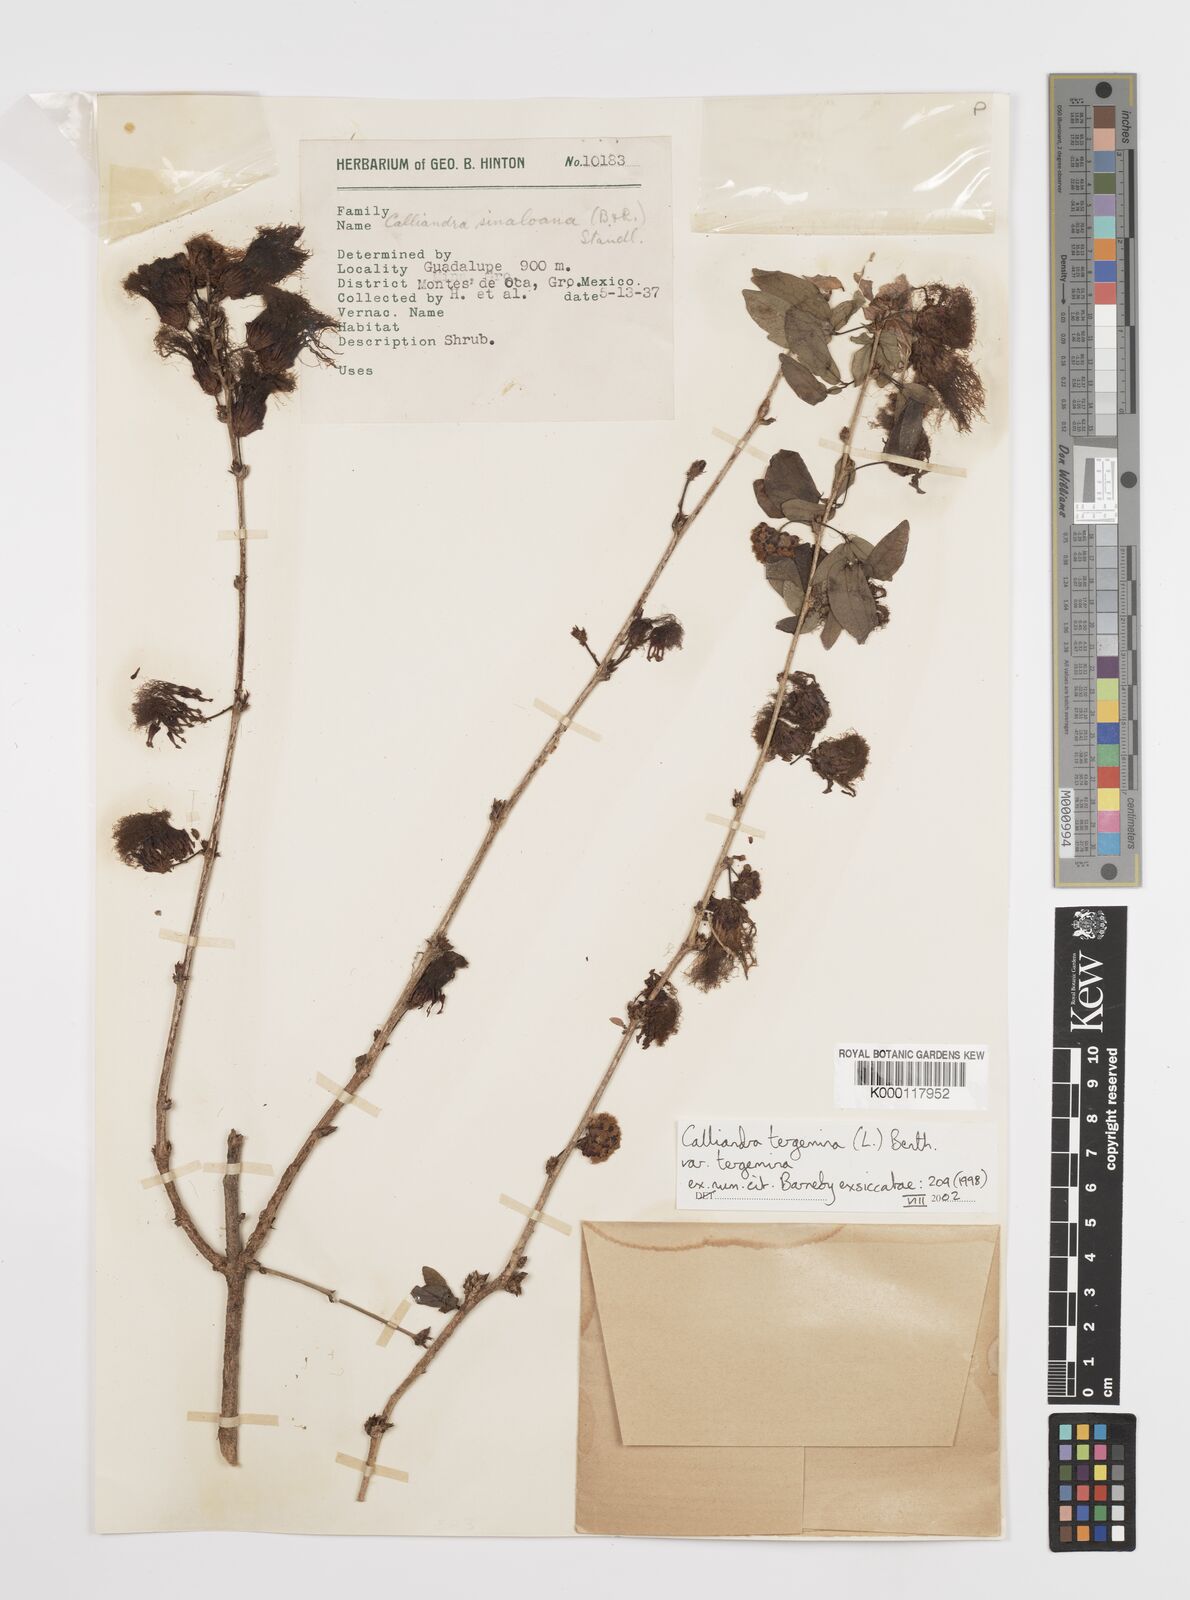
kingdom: Plantae
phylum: Tracheophyta
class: Magnoliopsida
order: Fabales
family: Fabaceae
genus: Calliandra
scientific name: Calliandra tergemina
